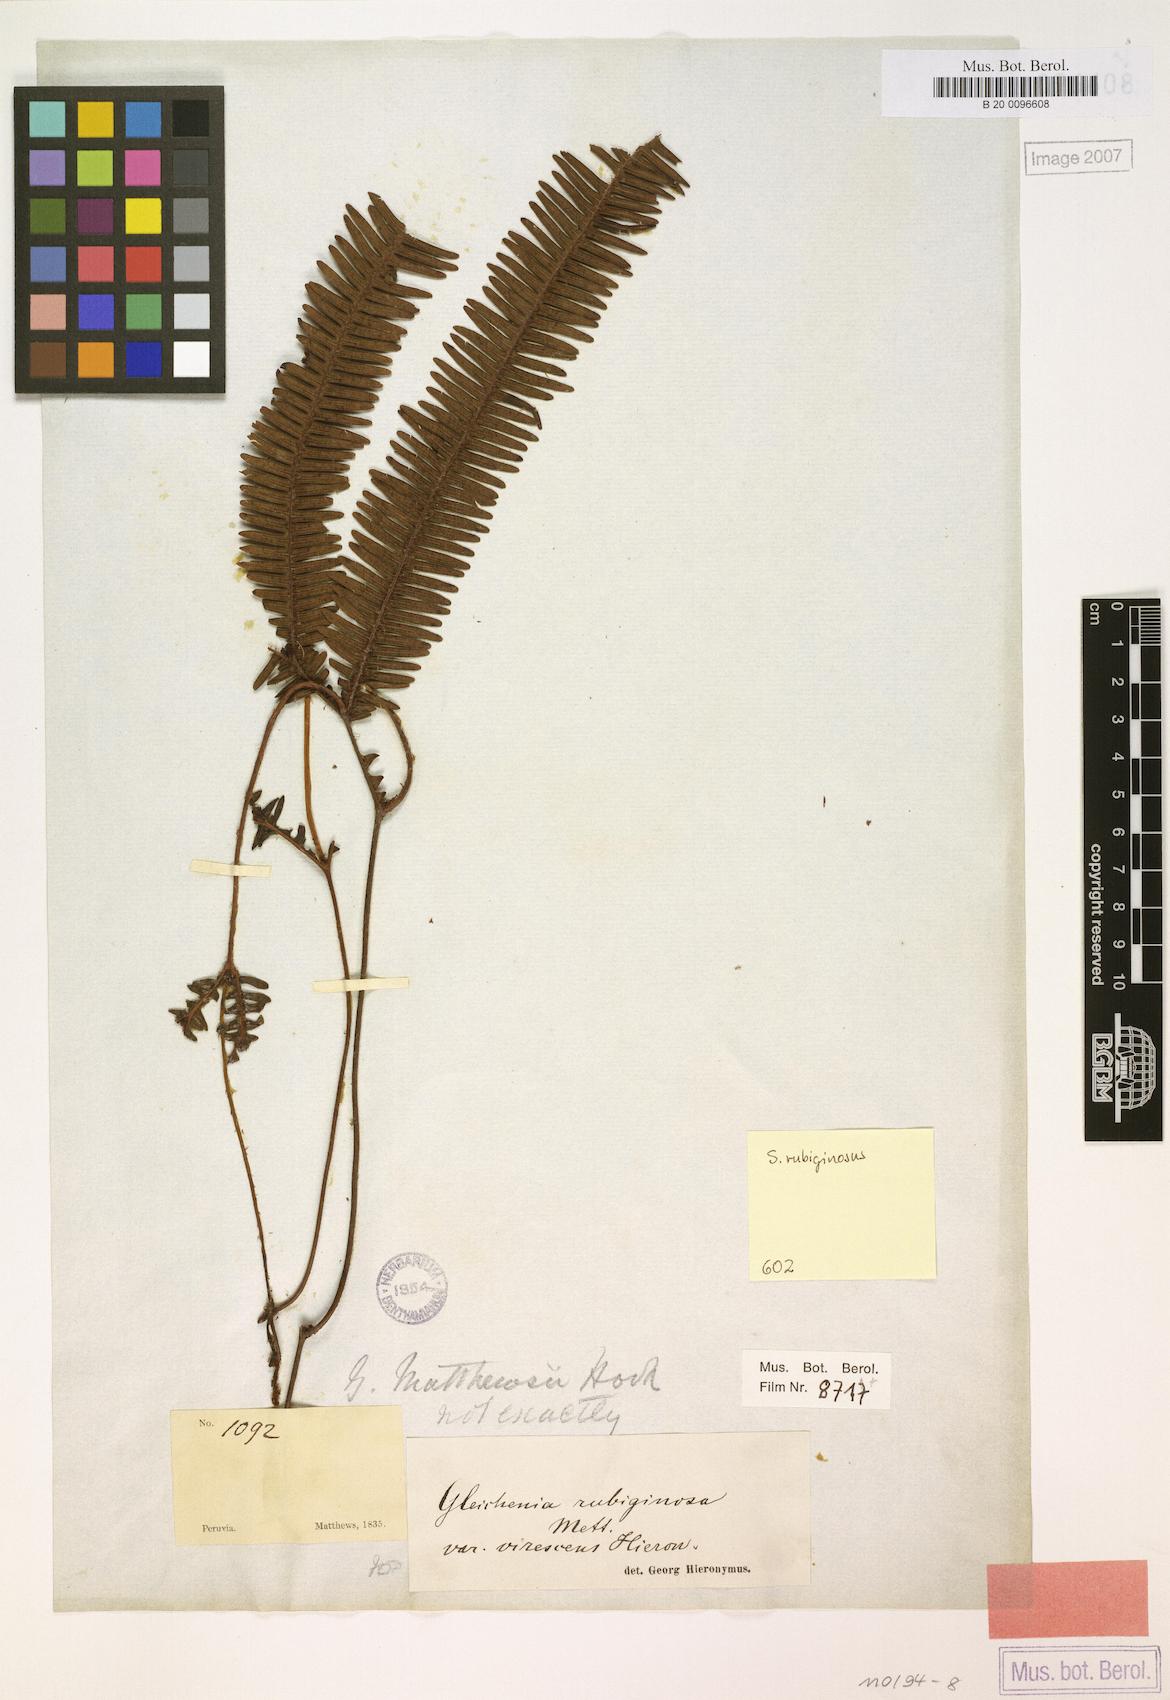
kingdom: Plantae
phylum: Tracheophyta
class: Polypodiopsida
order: Gleicheniales
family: Gleicheniaceae
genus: Sticherus
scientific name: Sticherus rubiginosus
